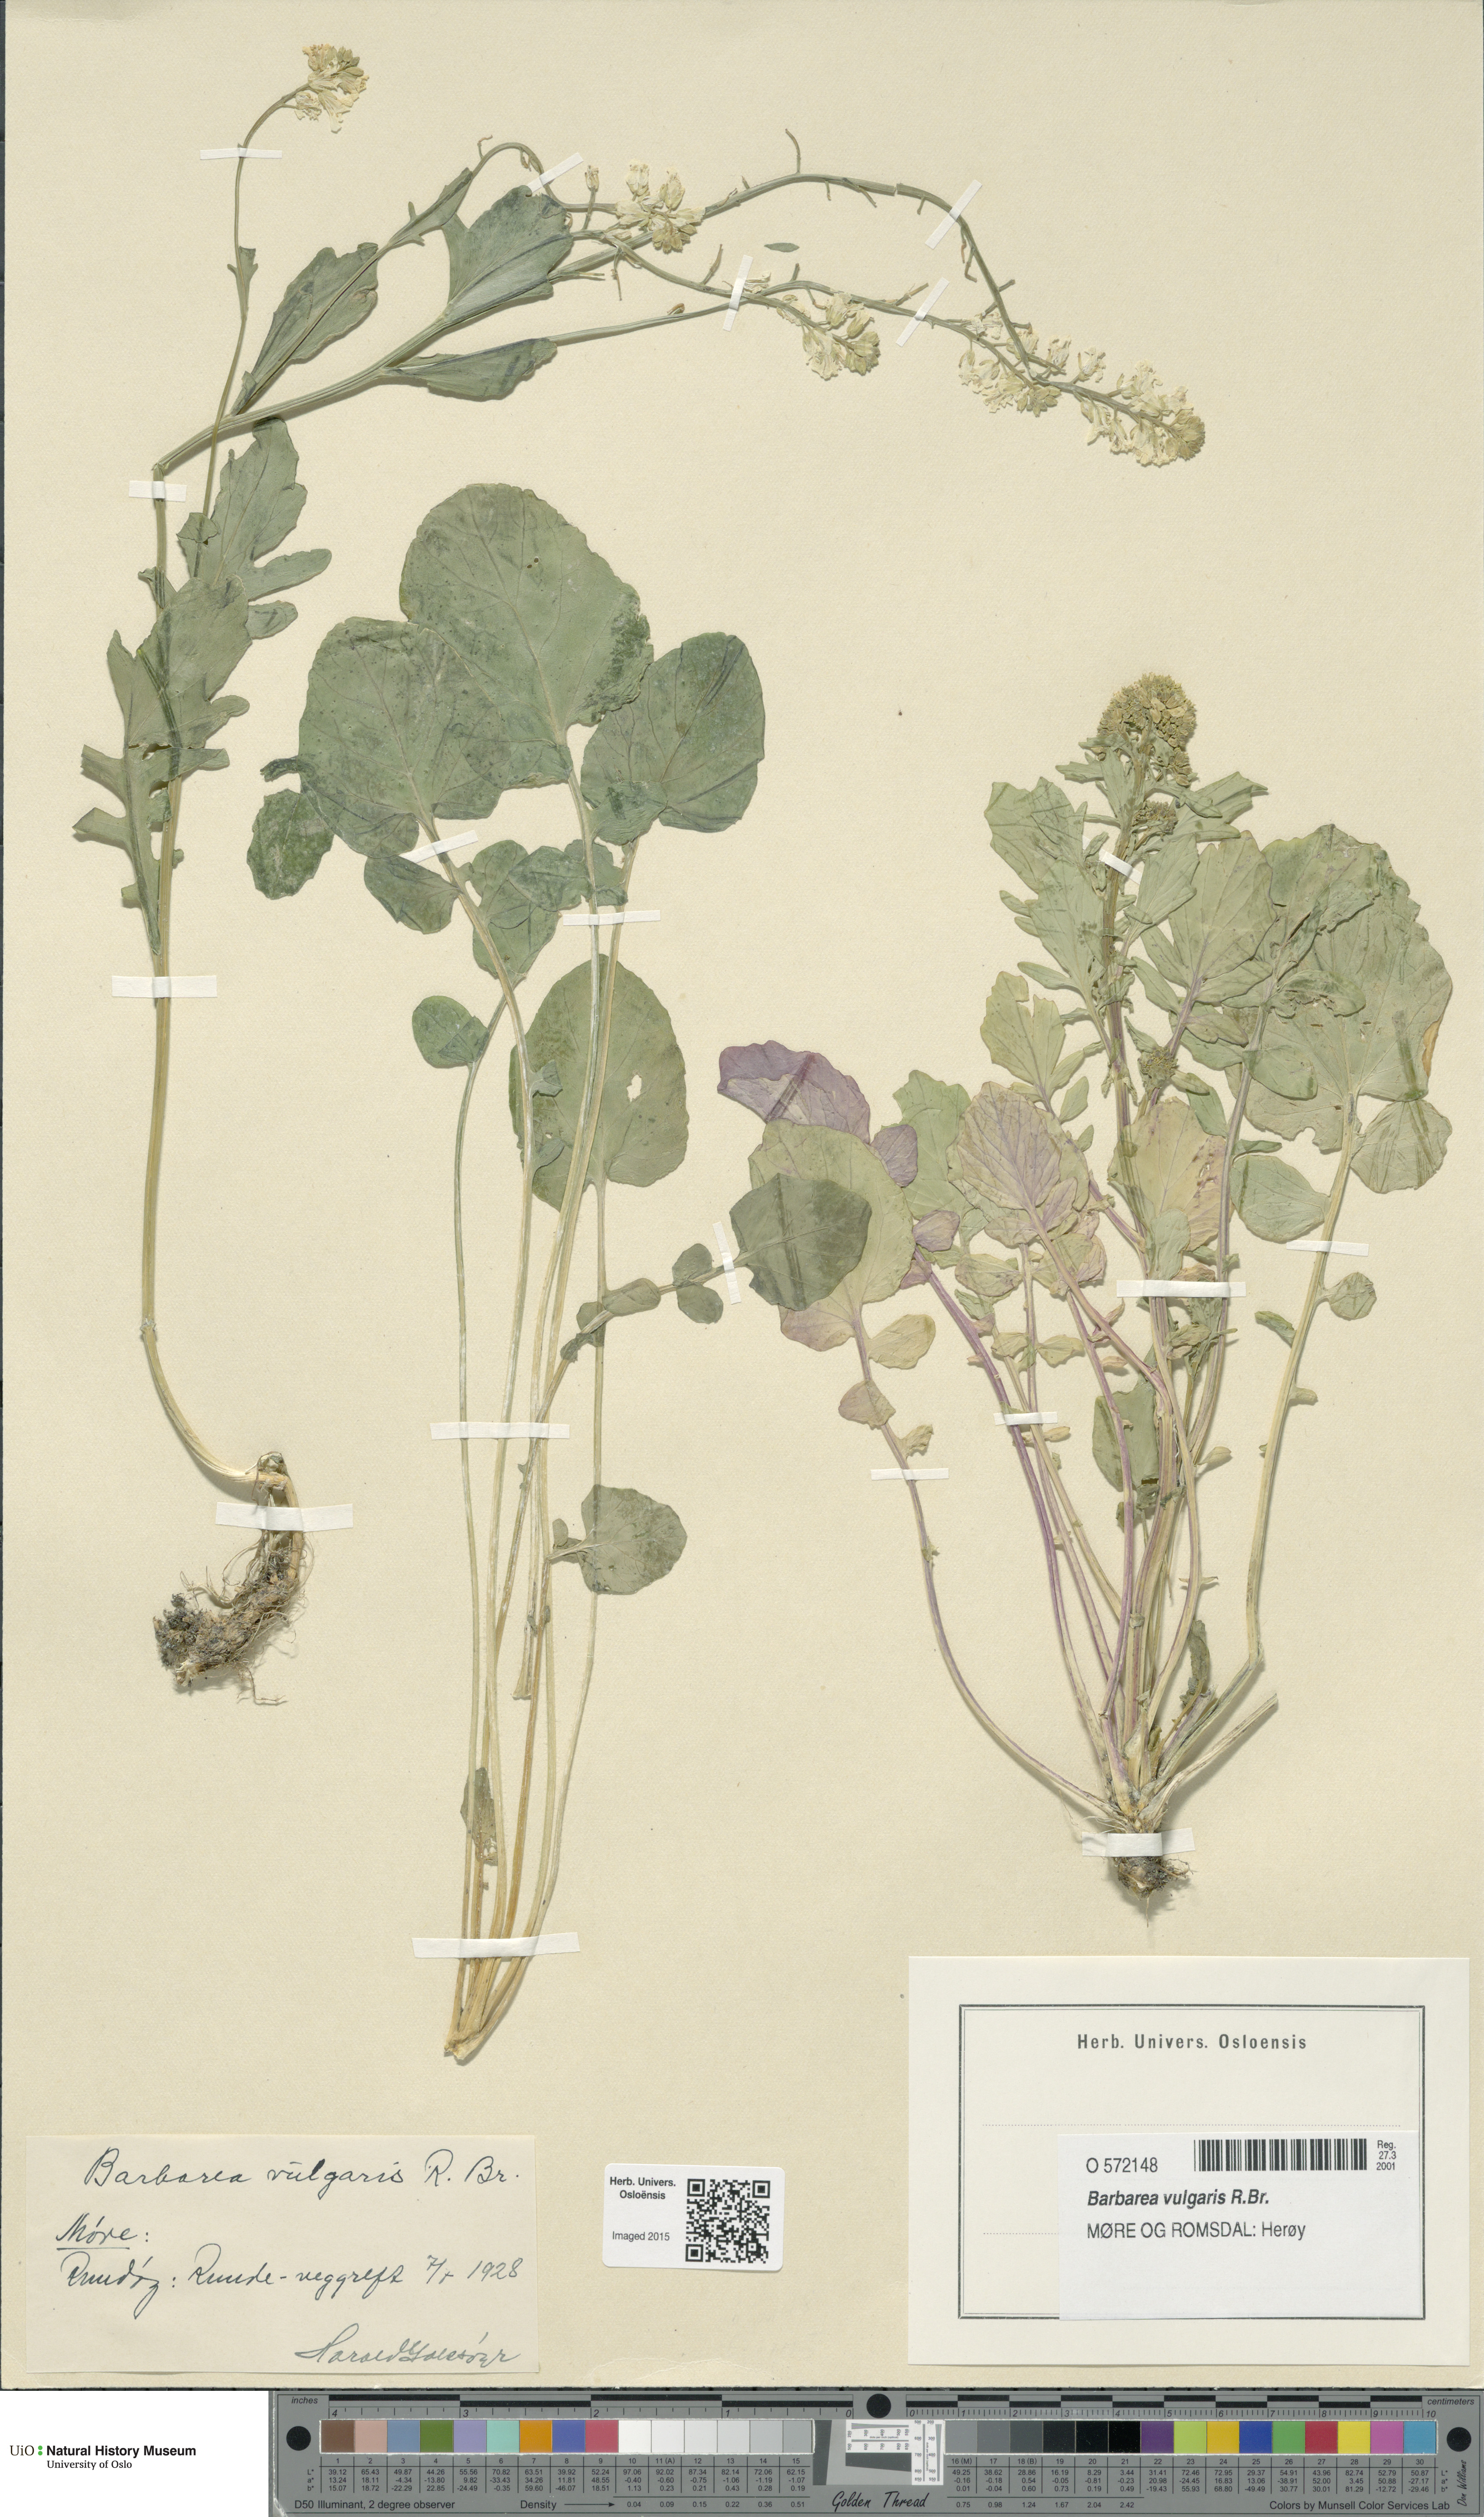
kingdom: Plantae
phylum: Tracheophyta
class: Magnoliopsida
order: Brassicales
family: Brassicaceae
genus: Barbarea
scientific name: Barbarea vulgaris
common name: Cressy-greens
